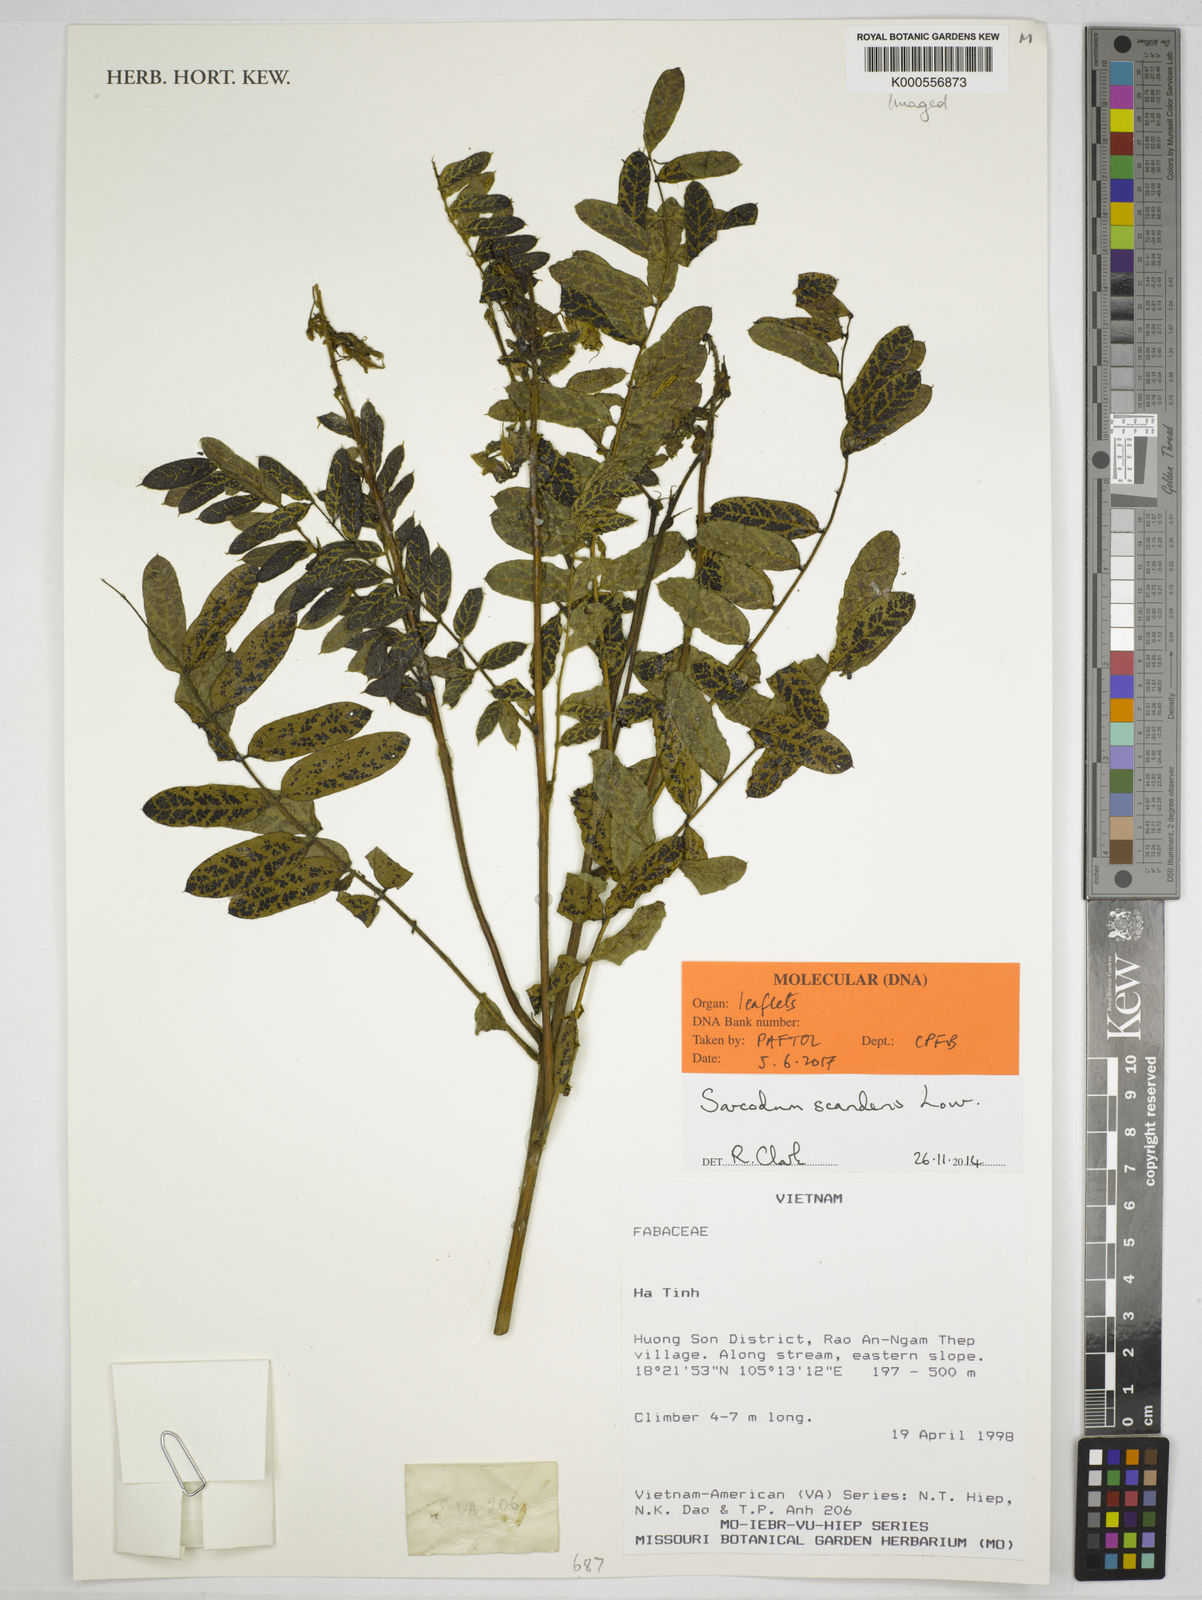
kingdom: Plantae
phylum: Tracheophyta
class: Magnoliopsida
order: Fabales
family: Fabaceae
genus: Sarcodum
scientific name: Sarcodum scandens
